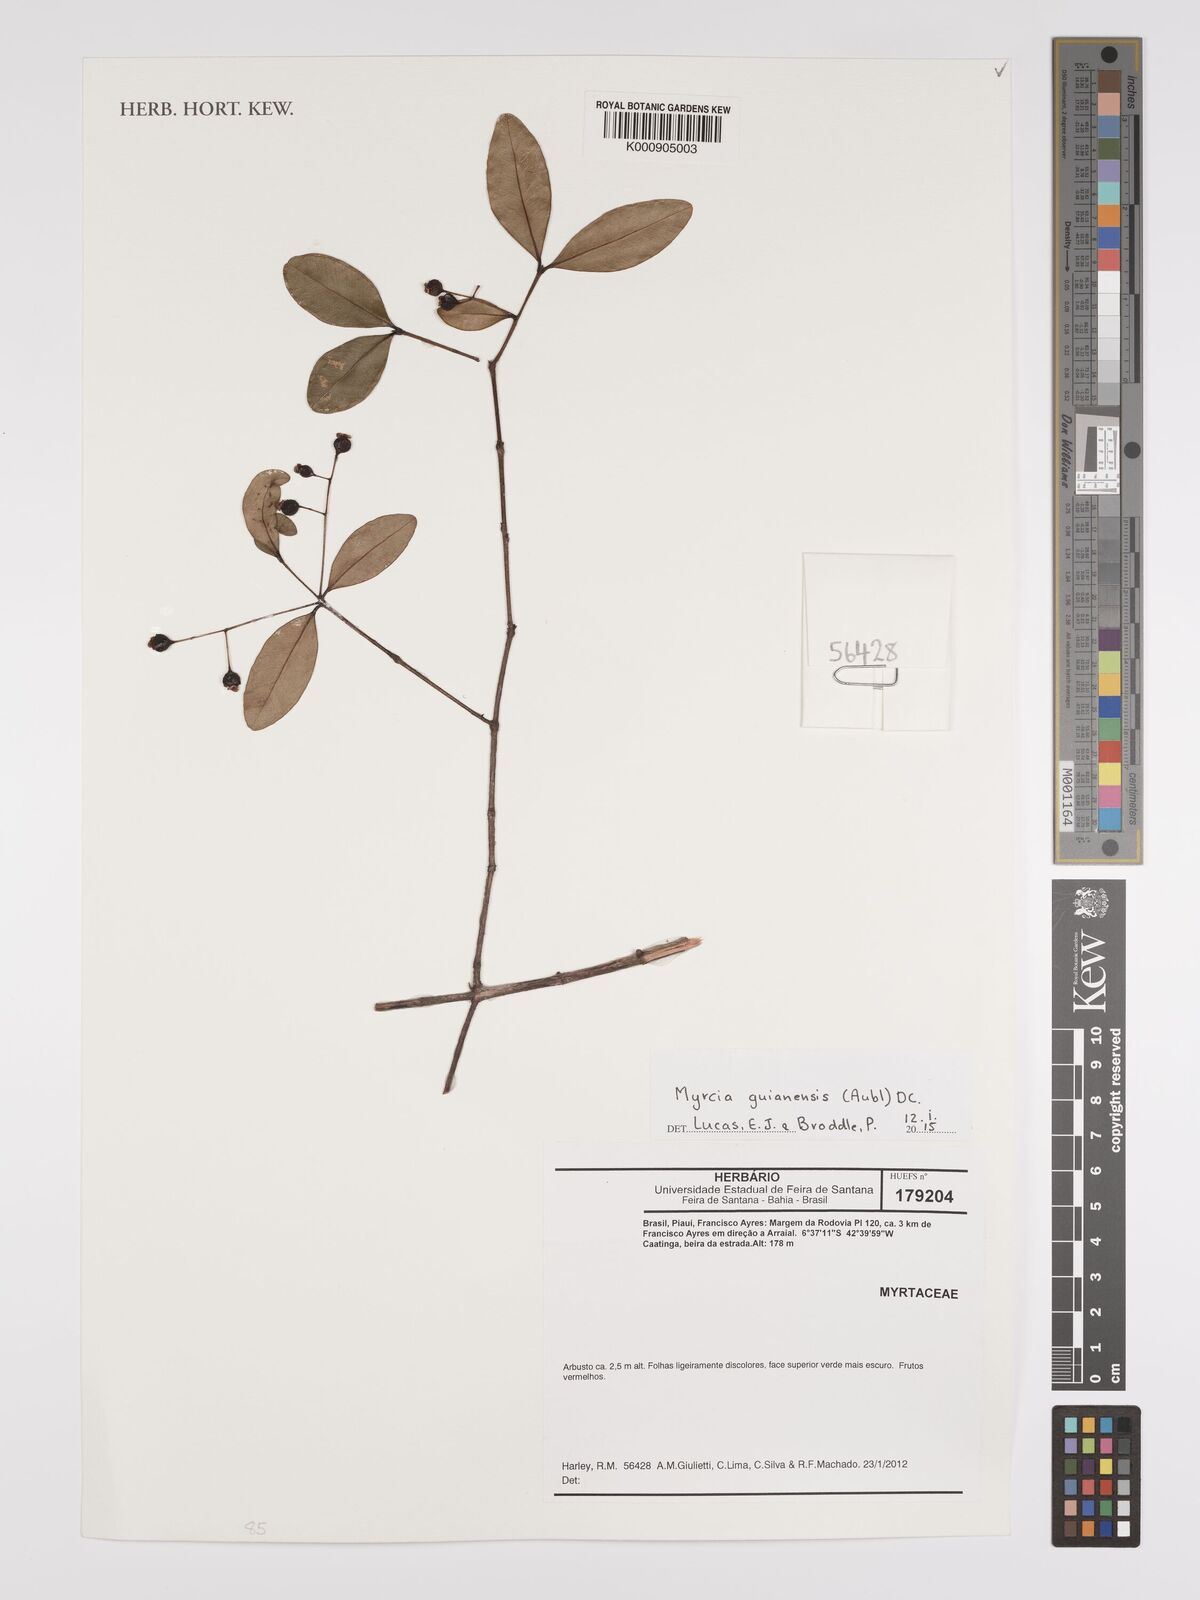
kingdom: Plantae
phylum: Tracheophyta
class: Magnoliopsida
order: Myrtales
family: Myrtaceae
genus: Myrcia
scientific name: Myrcia guianensis
